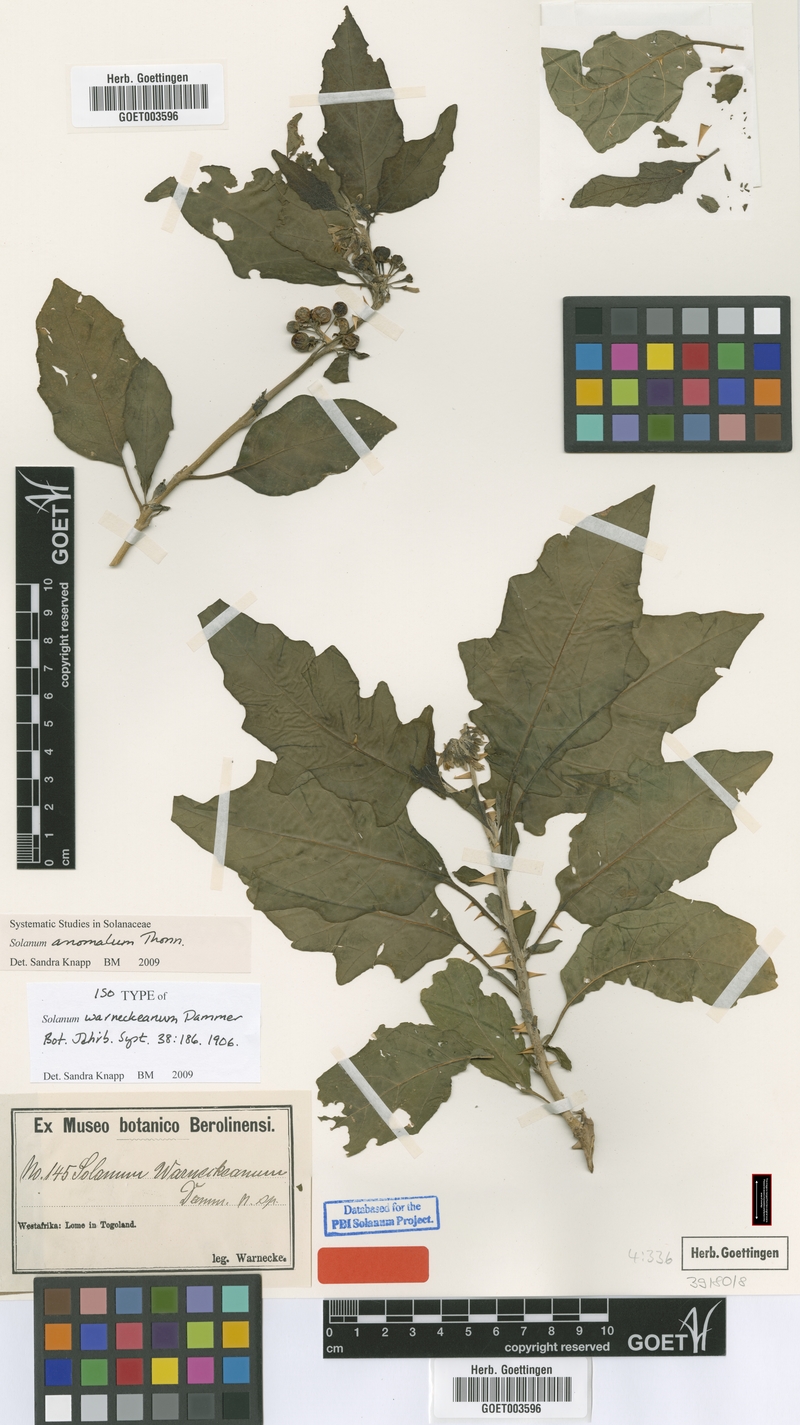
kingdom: Plantae
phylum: Tracheophyta
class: Magnoliopsida
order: Solanales
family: Solanaceae
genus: Solanum
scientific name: Solanum anomalum
